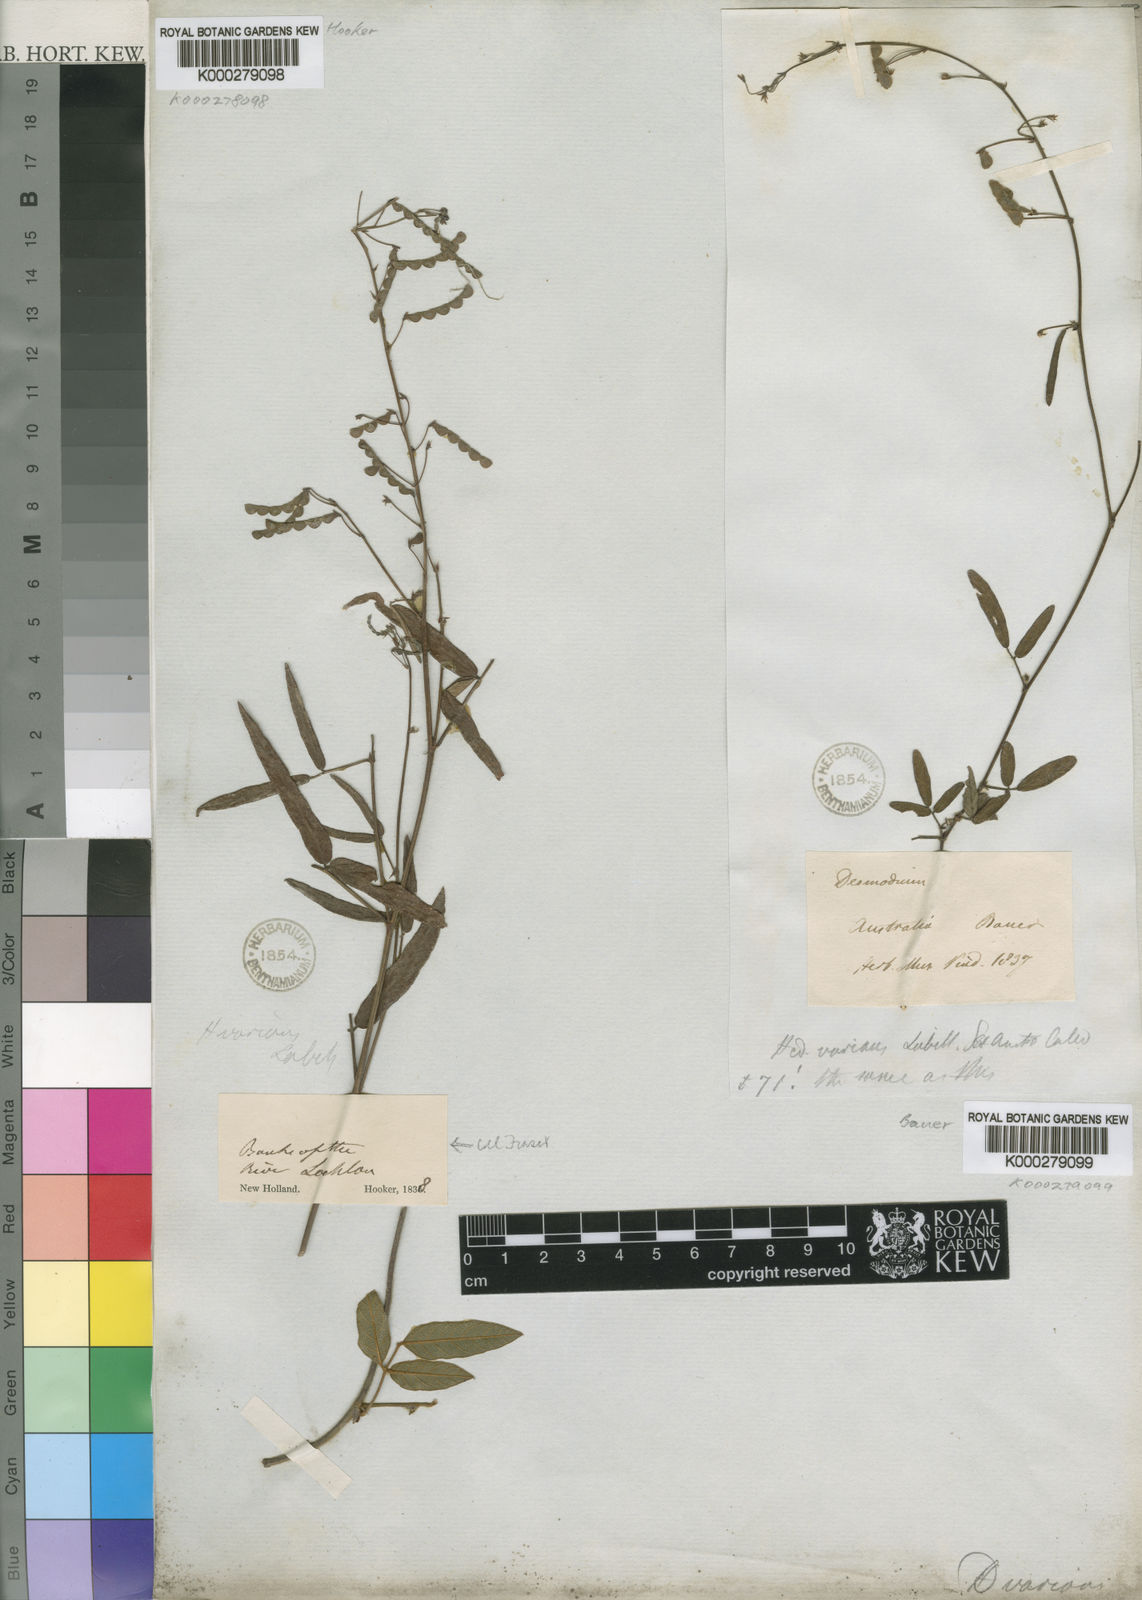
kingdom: Plantae
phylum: Tracheophyta
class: Magnoliopsida
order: Fabales
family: Fabaceae
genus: Grona
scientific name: Grona varians
